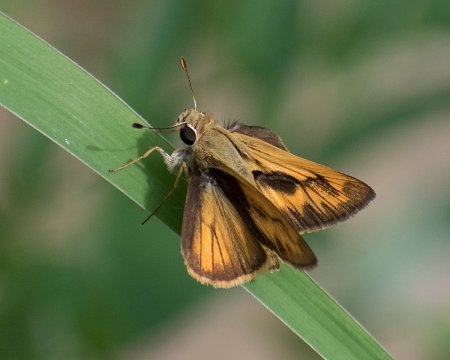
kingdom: Animalia
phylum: Arthropoda
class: Insecta
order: Lepidoptera
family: Hesperiidae
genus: Polites
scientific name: Polites vibex
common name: Whirlabout
